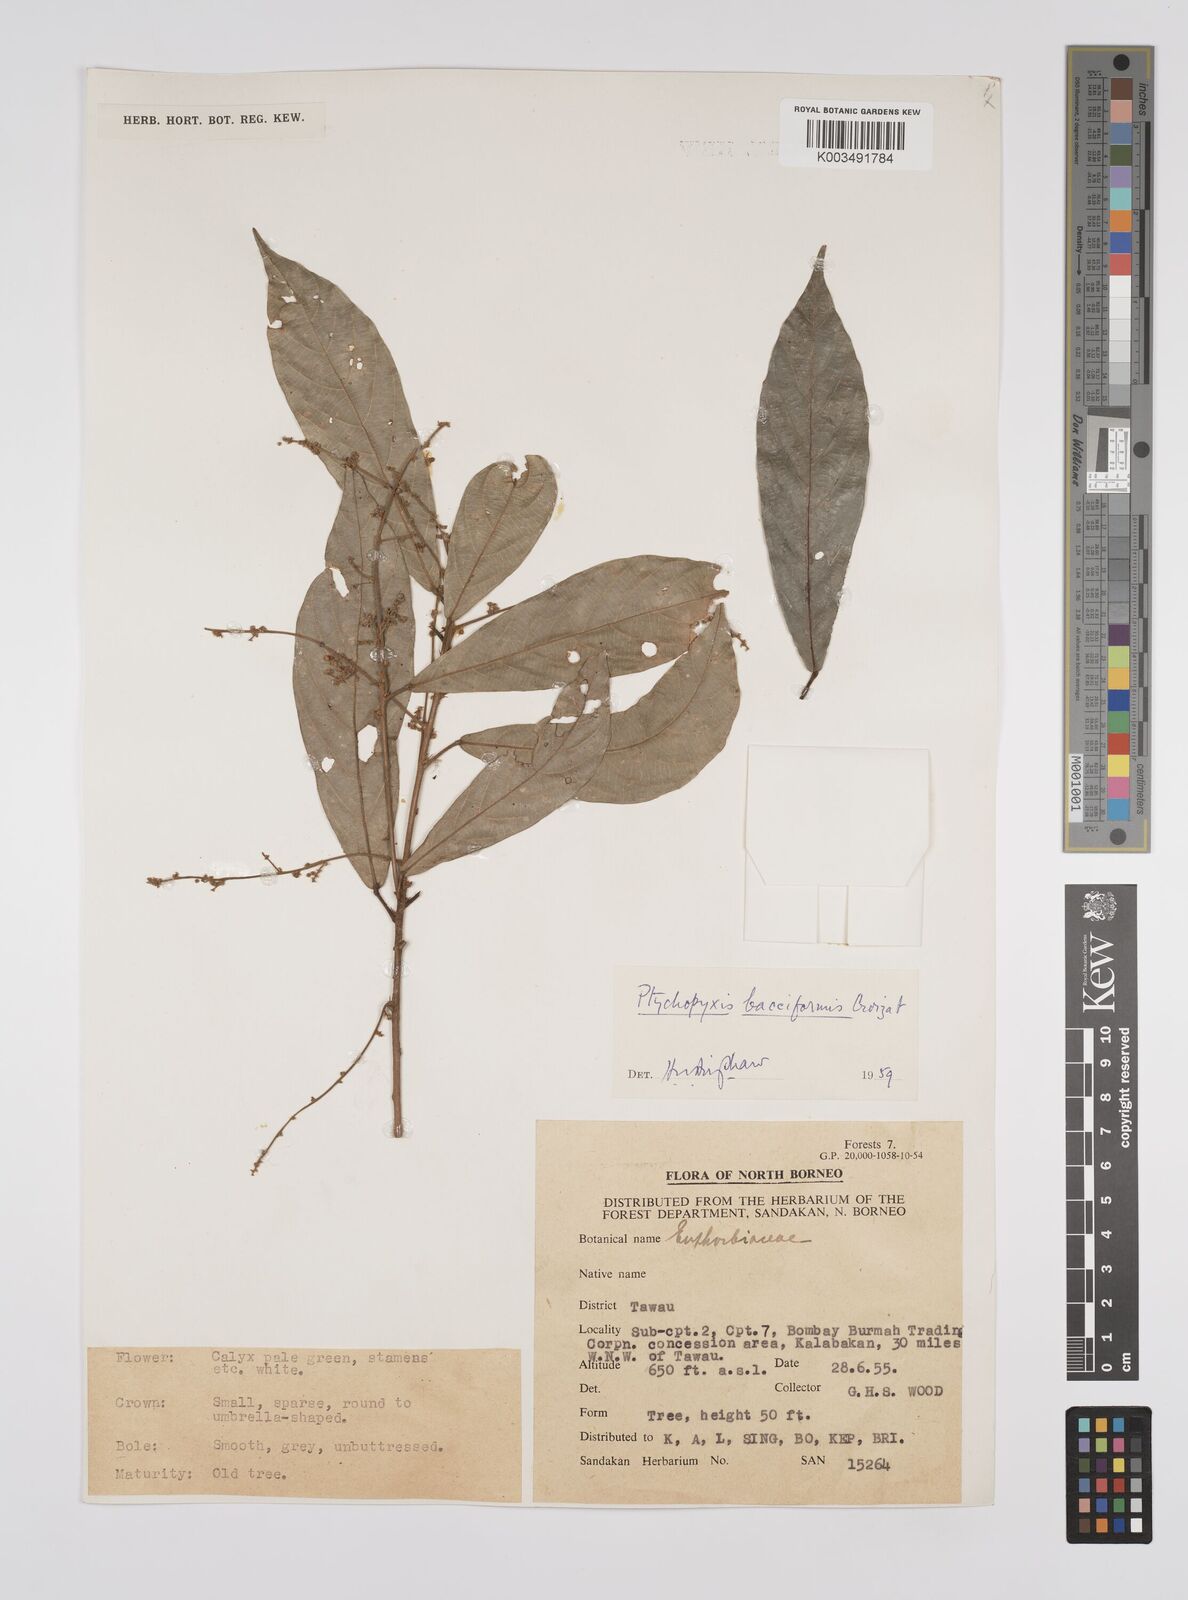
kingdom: Plantae
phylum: Tracheophyta
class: Magnoliopsida
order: Malpighiales
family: Euphorbiaceae
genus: Ptychopyxis
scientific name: Ptychopyxis bacciformis
